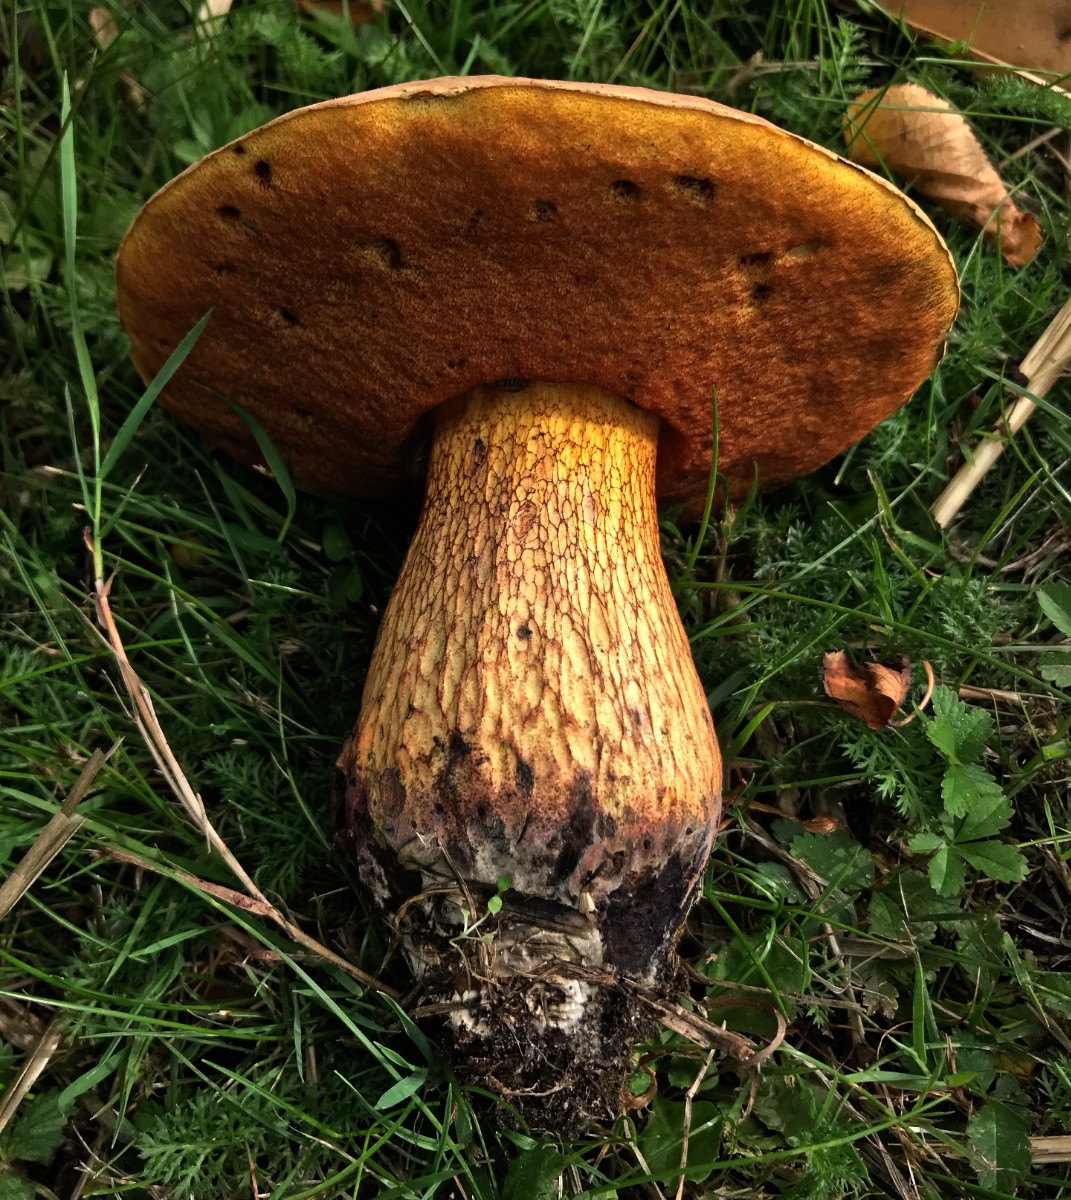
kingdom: Fungi
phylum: Basidiomycota
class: Agaricomycetes
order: Boletales
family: Boletaceae
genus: Suillellus
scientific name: Suillellus luridus
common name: netstokket indigorørhat
